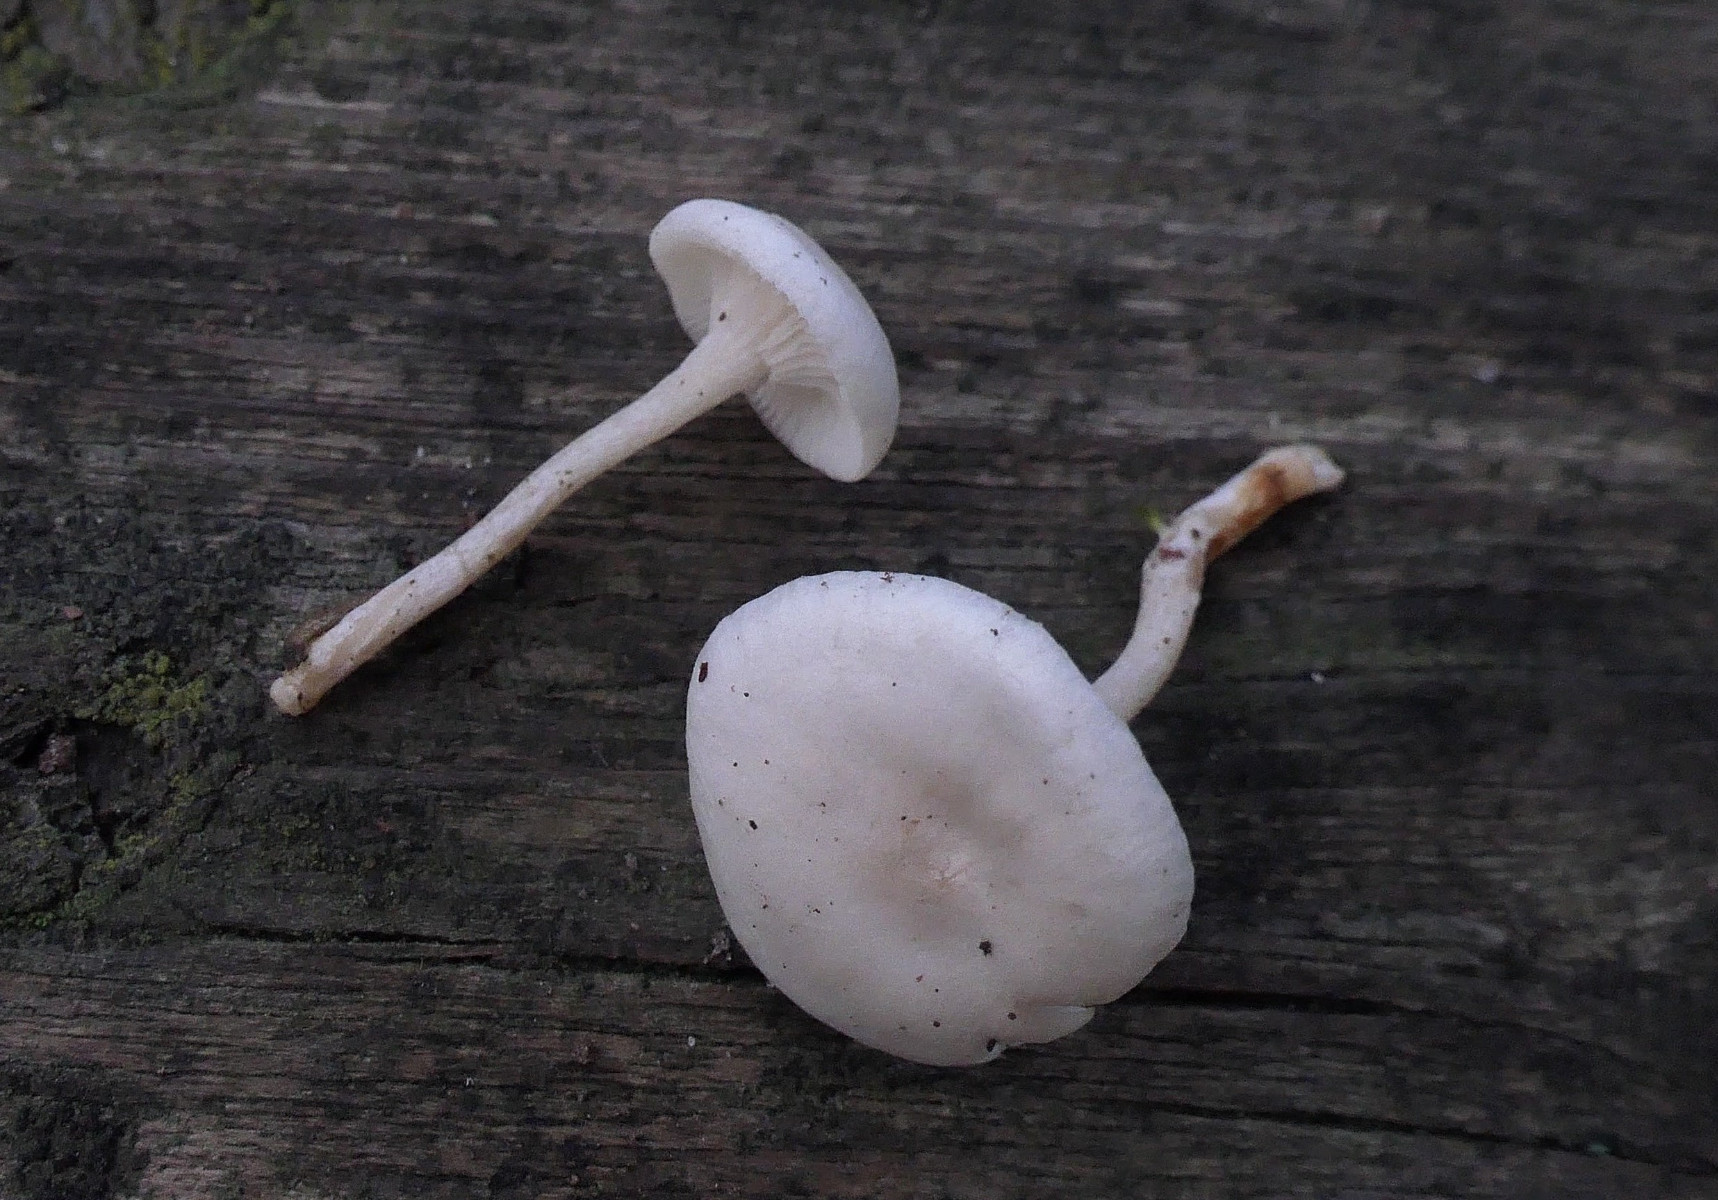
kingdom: Fungi
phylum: Basidiomycota
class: Agaricomycetes
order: Agaricales
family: Tricholomataceae
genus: Leucocybe
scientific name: Leucocybe candicans
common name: kridt-tragthat
